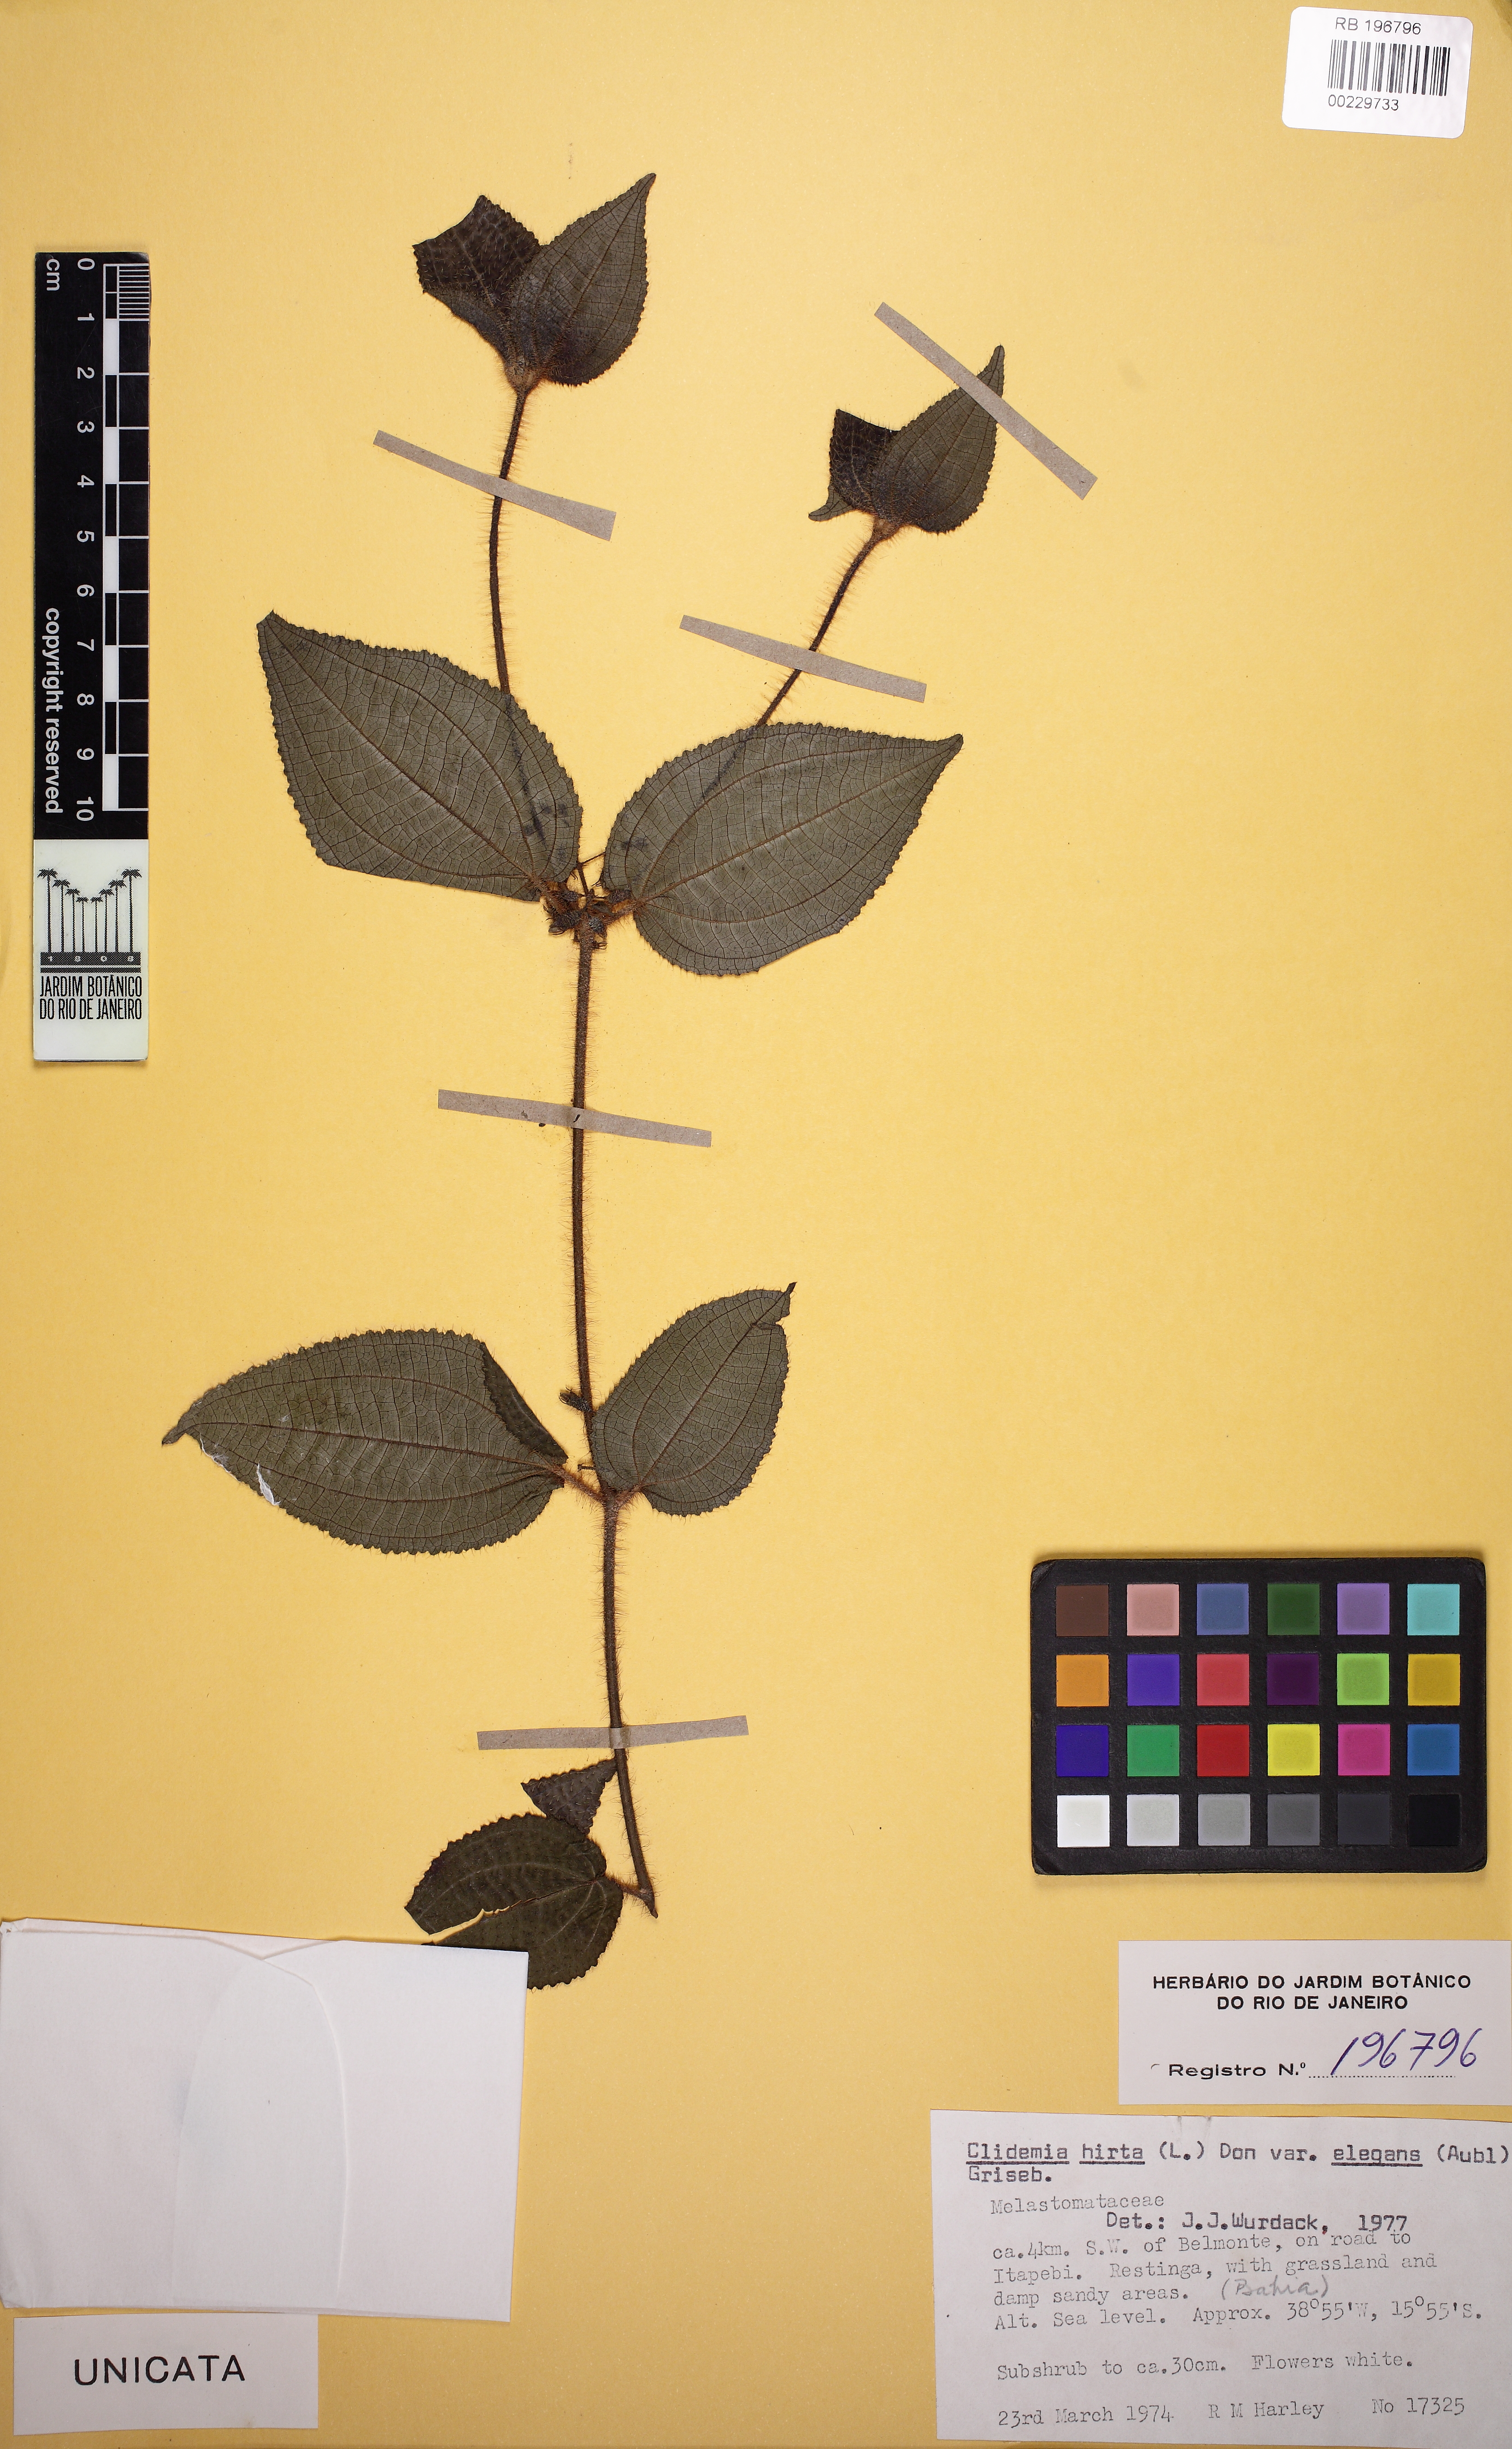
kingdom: Plantae
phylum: Tracheophyta
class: Magnoliopsida
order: Myrtales
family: Melastomataceae
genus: Miconia
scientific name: Miconia crenata
